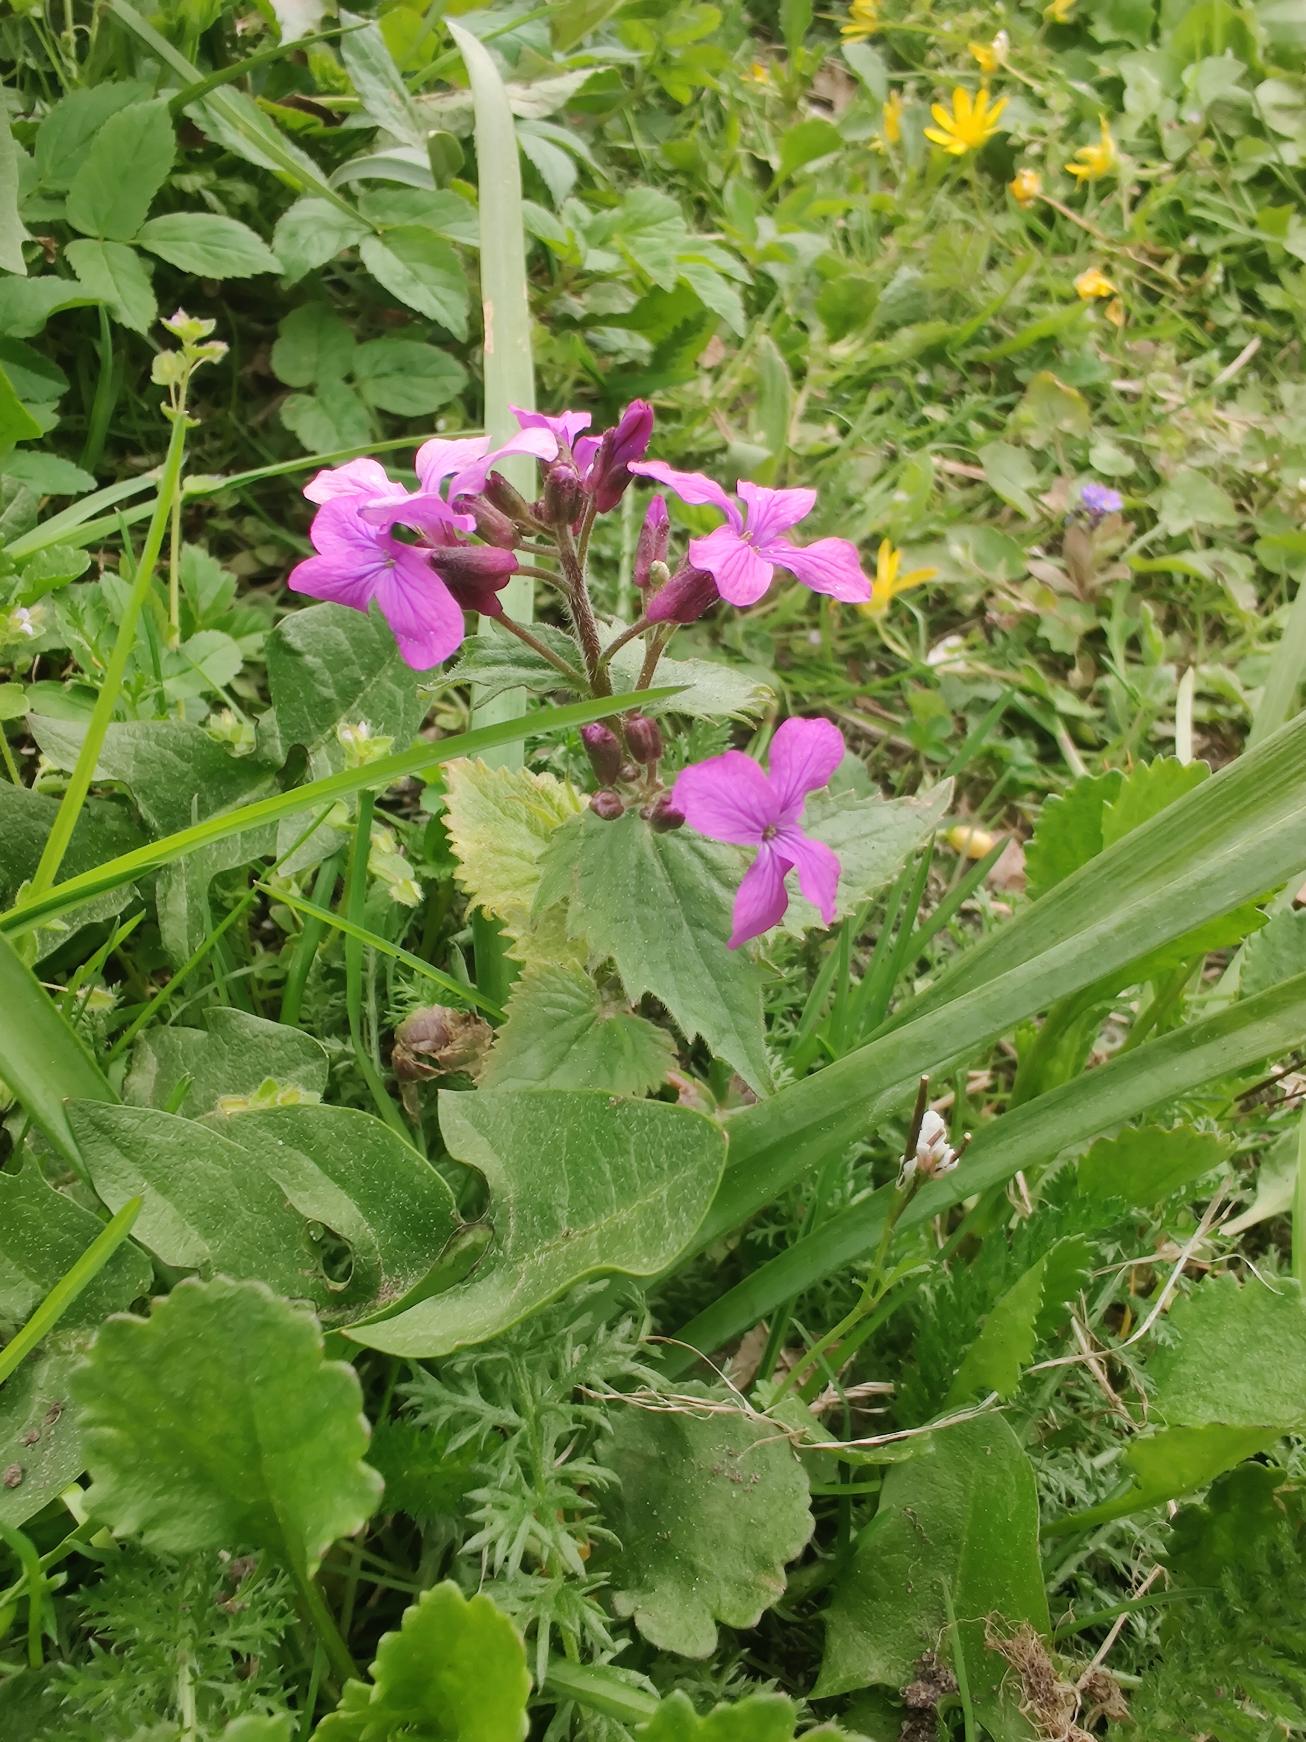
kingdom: Plantae
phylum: Tracheophyta
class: Magnoliopsida
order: Brassicales
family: Brassicaceae
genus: Lunaria
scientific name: Lunaria annua
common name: Judaspenge
